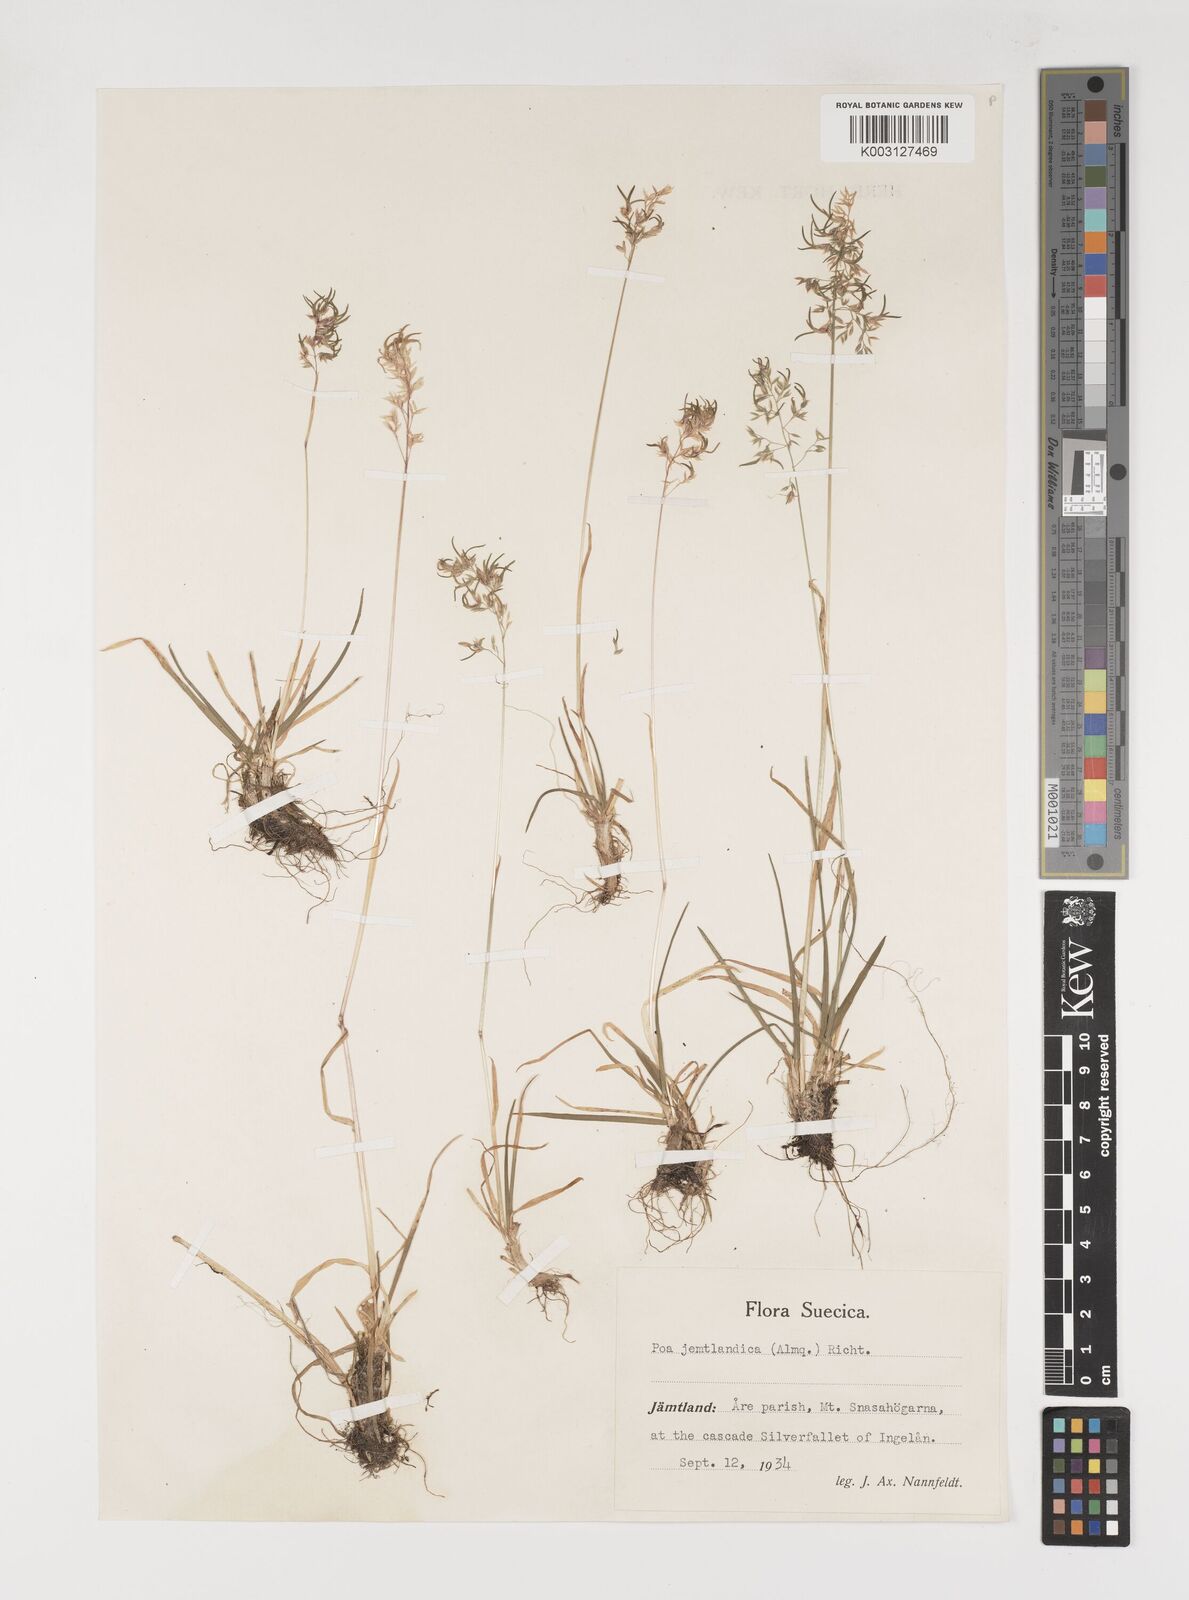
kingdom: Plantae
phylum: Tracheophyta
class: Liliopsida
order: Poales
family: Poaceae
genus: Poa
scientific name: Poa jemtlandica
